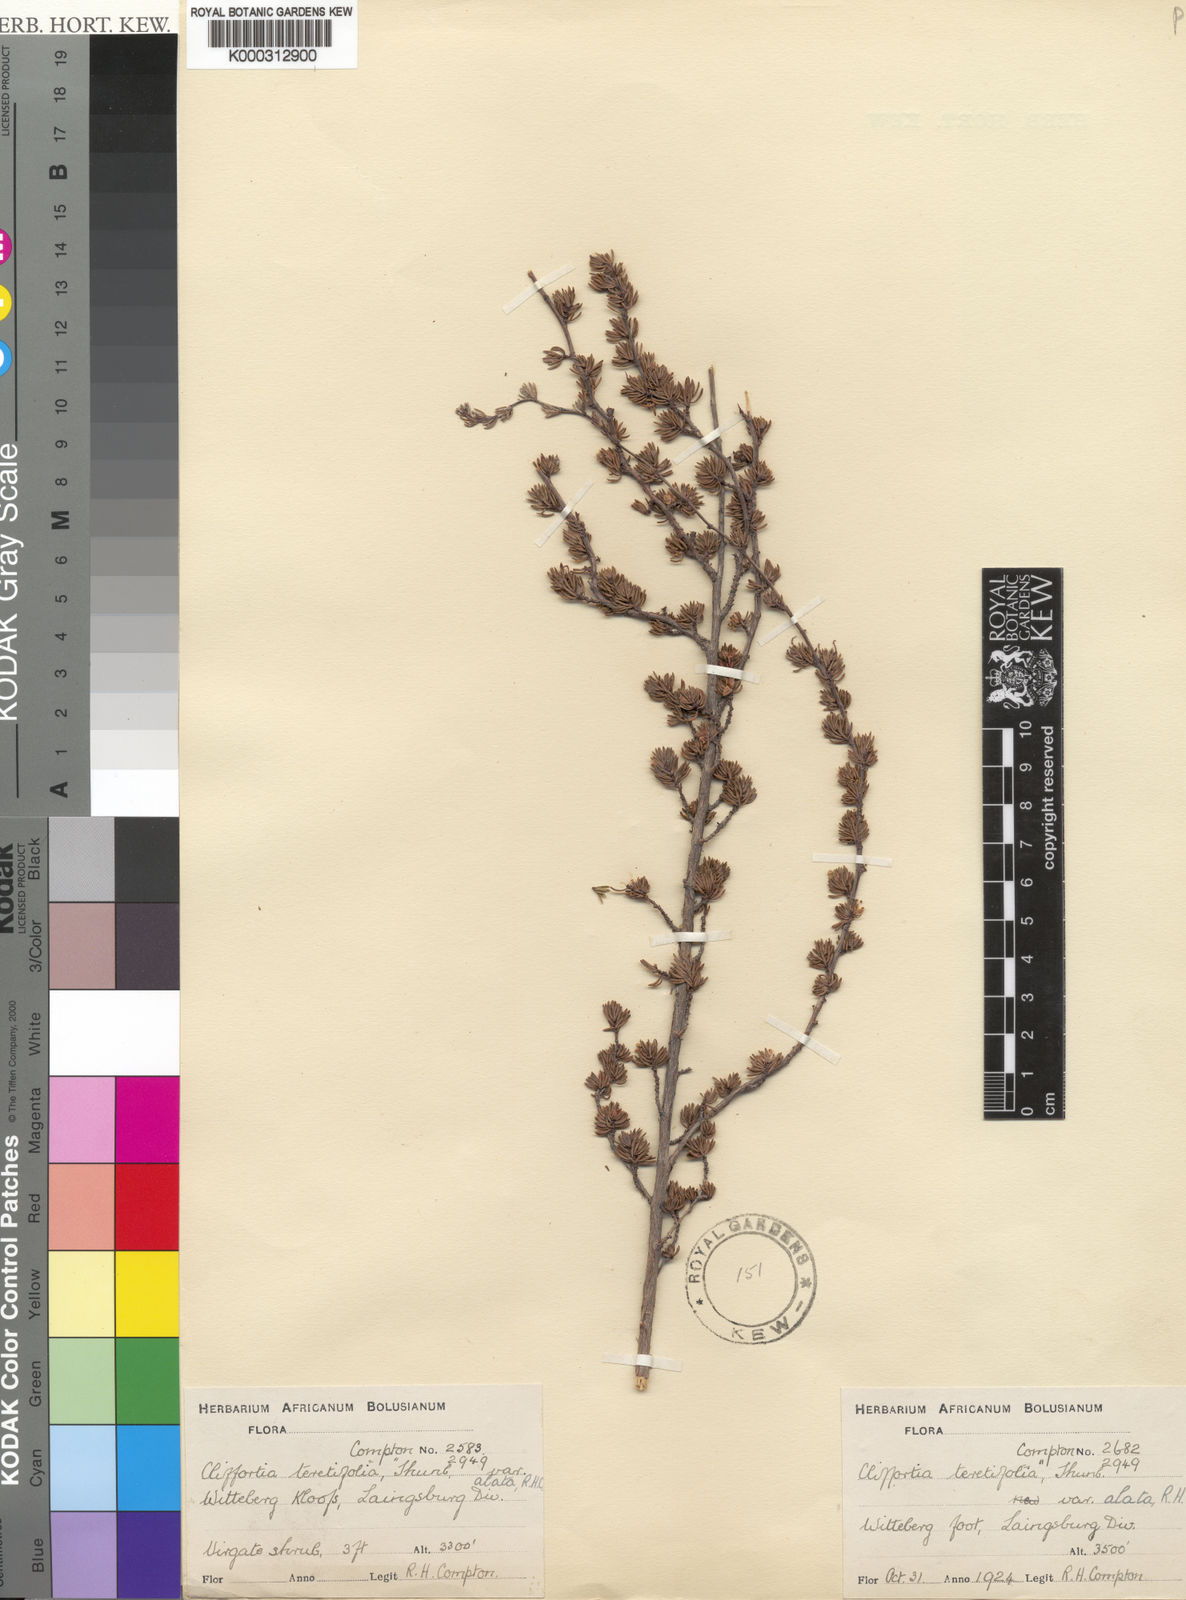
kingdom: Plantae
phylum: Tracheophyta
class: Magnoliopsida
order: Rosales
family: Rosaceae
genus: Cliffortia
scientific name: Cliffortia
